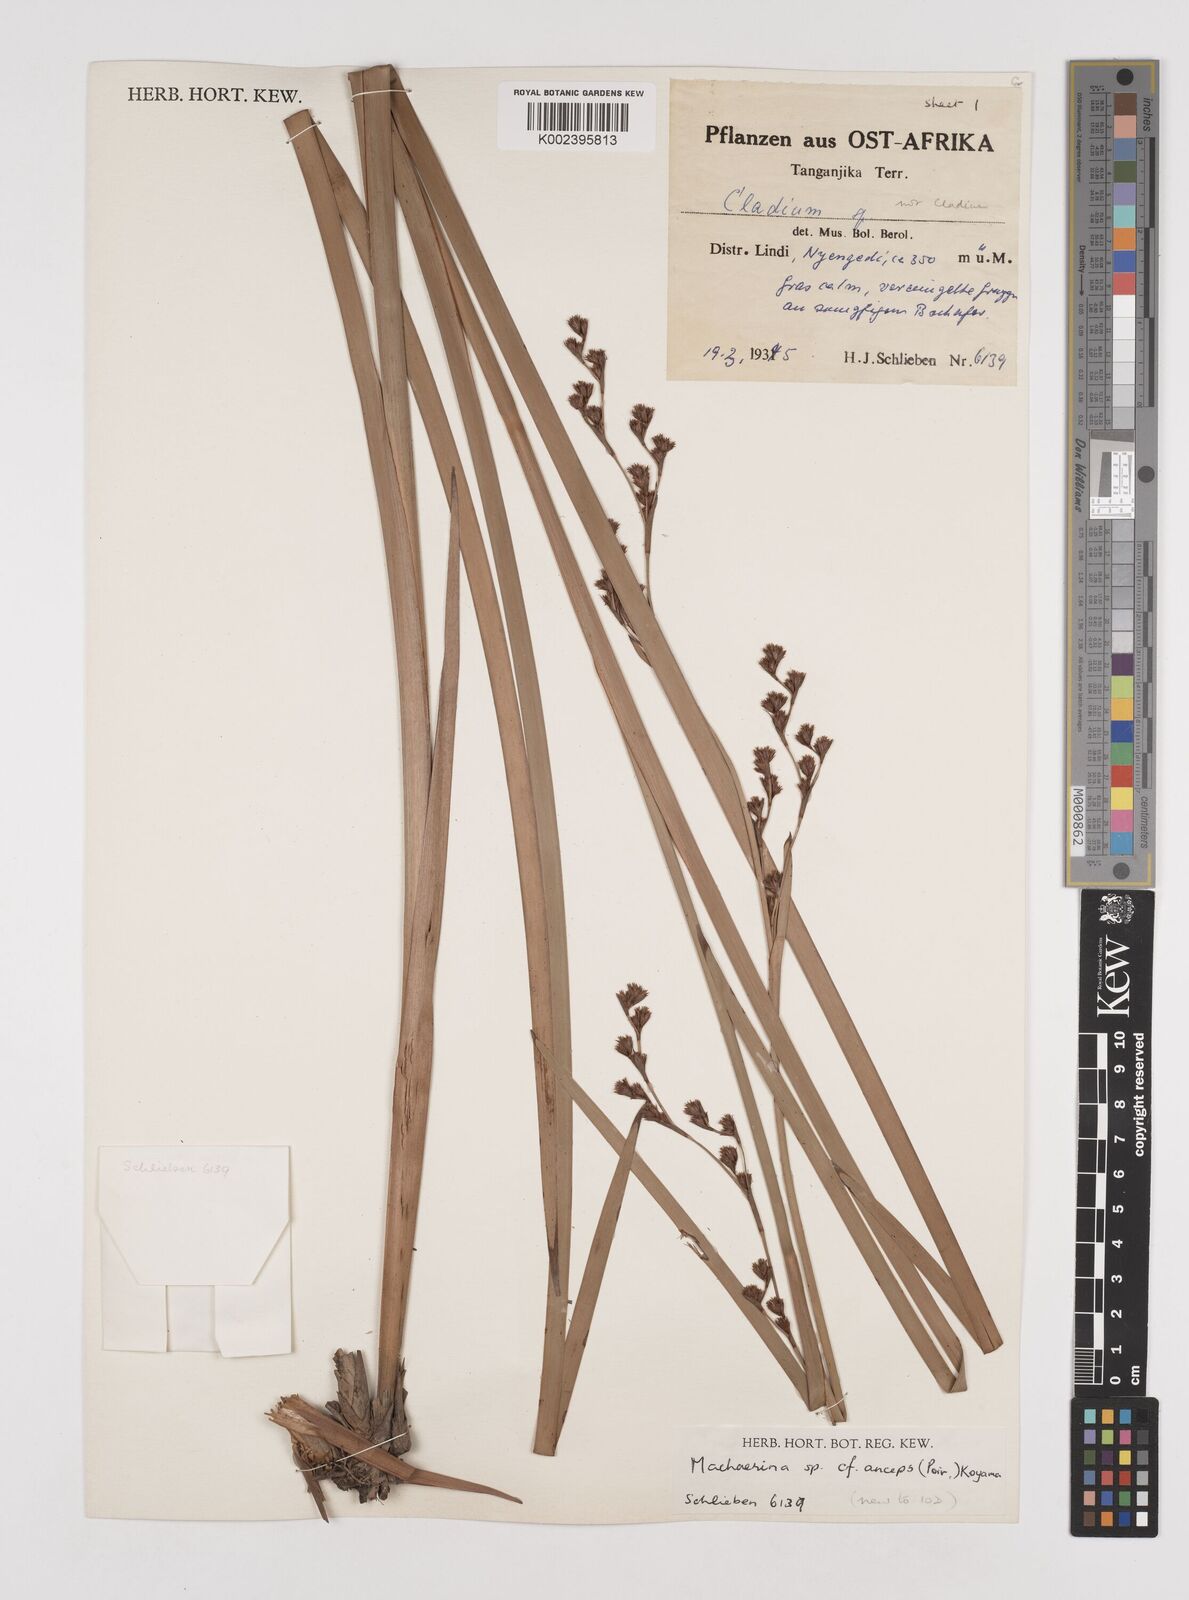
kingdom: Plantae
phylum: Tracheophyta
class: Liliopsida
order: Poales
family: Cyperaceae
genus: Machaerina
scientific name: Machaerina anceps
